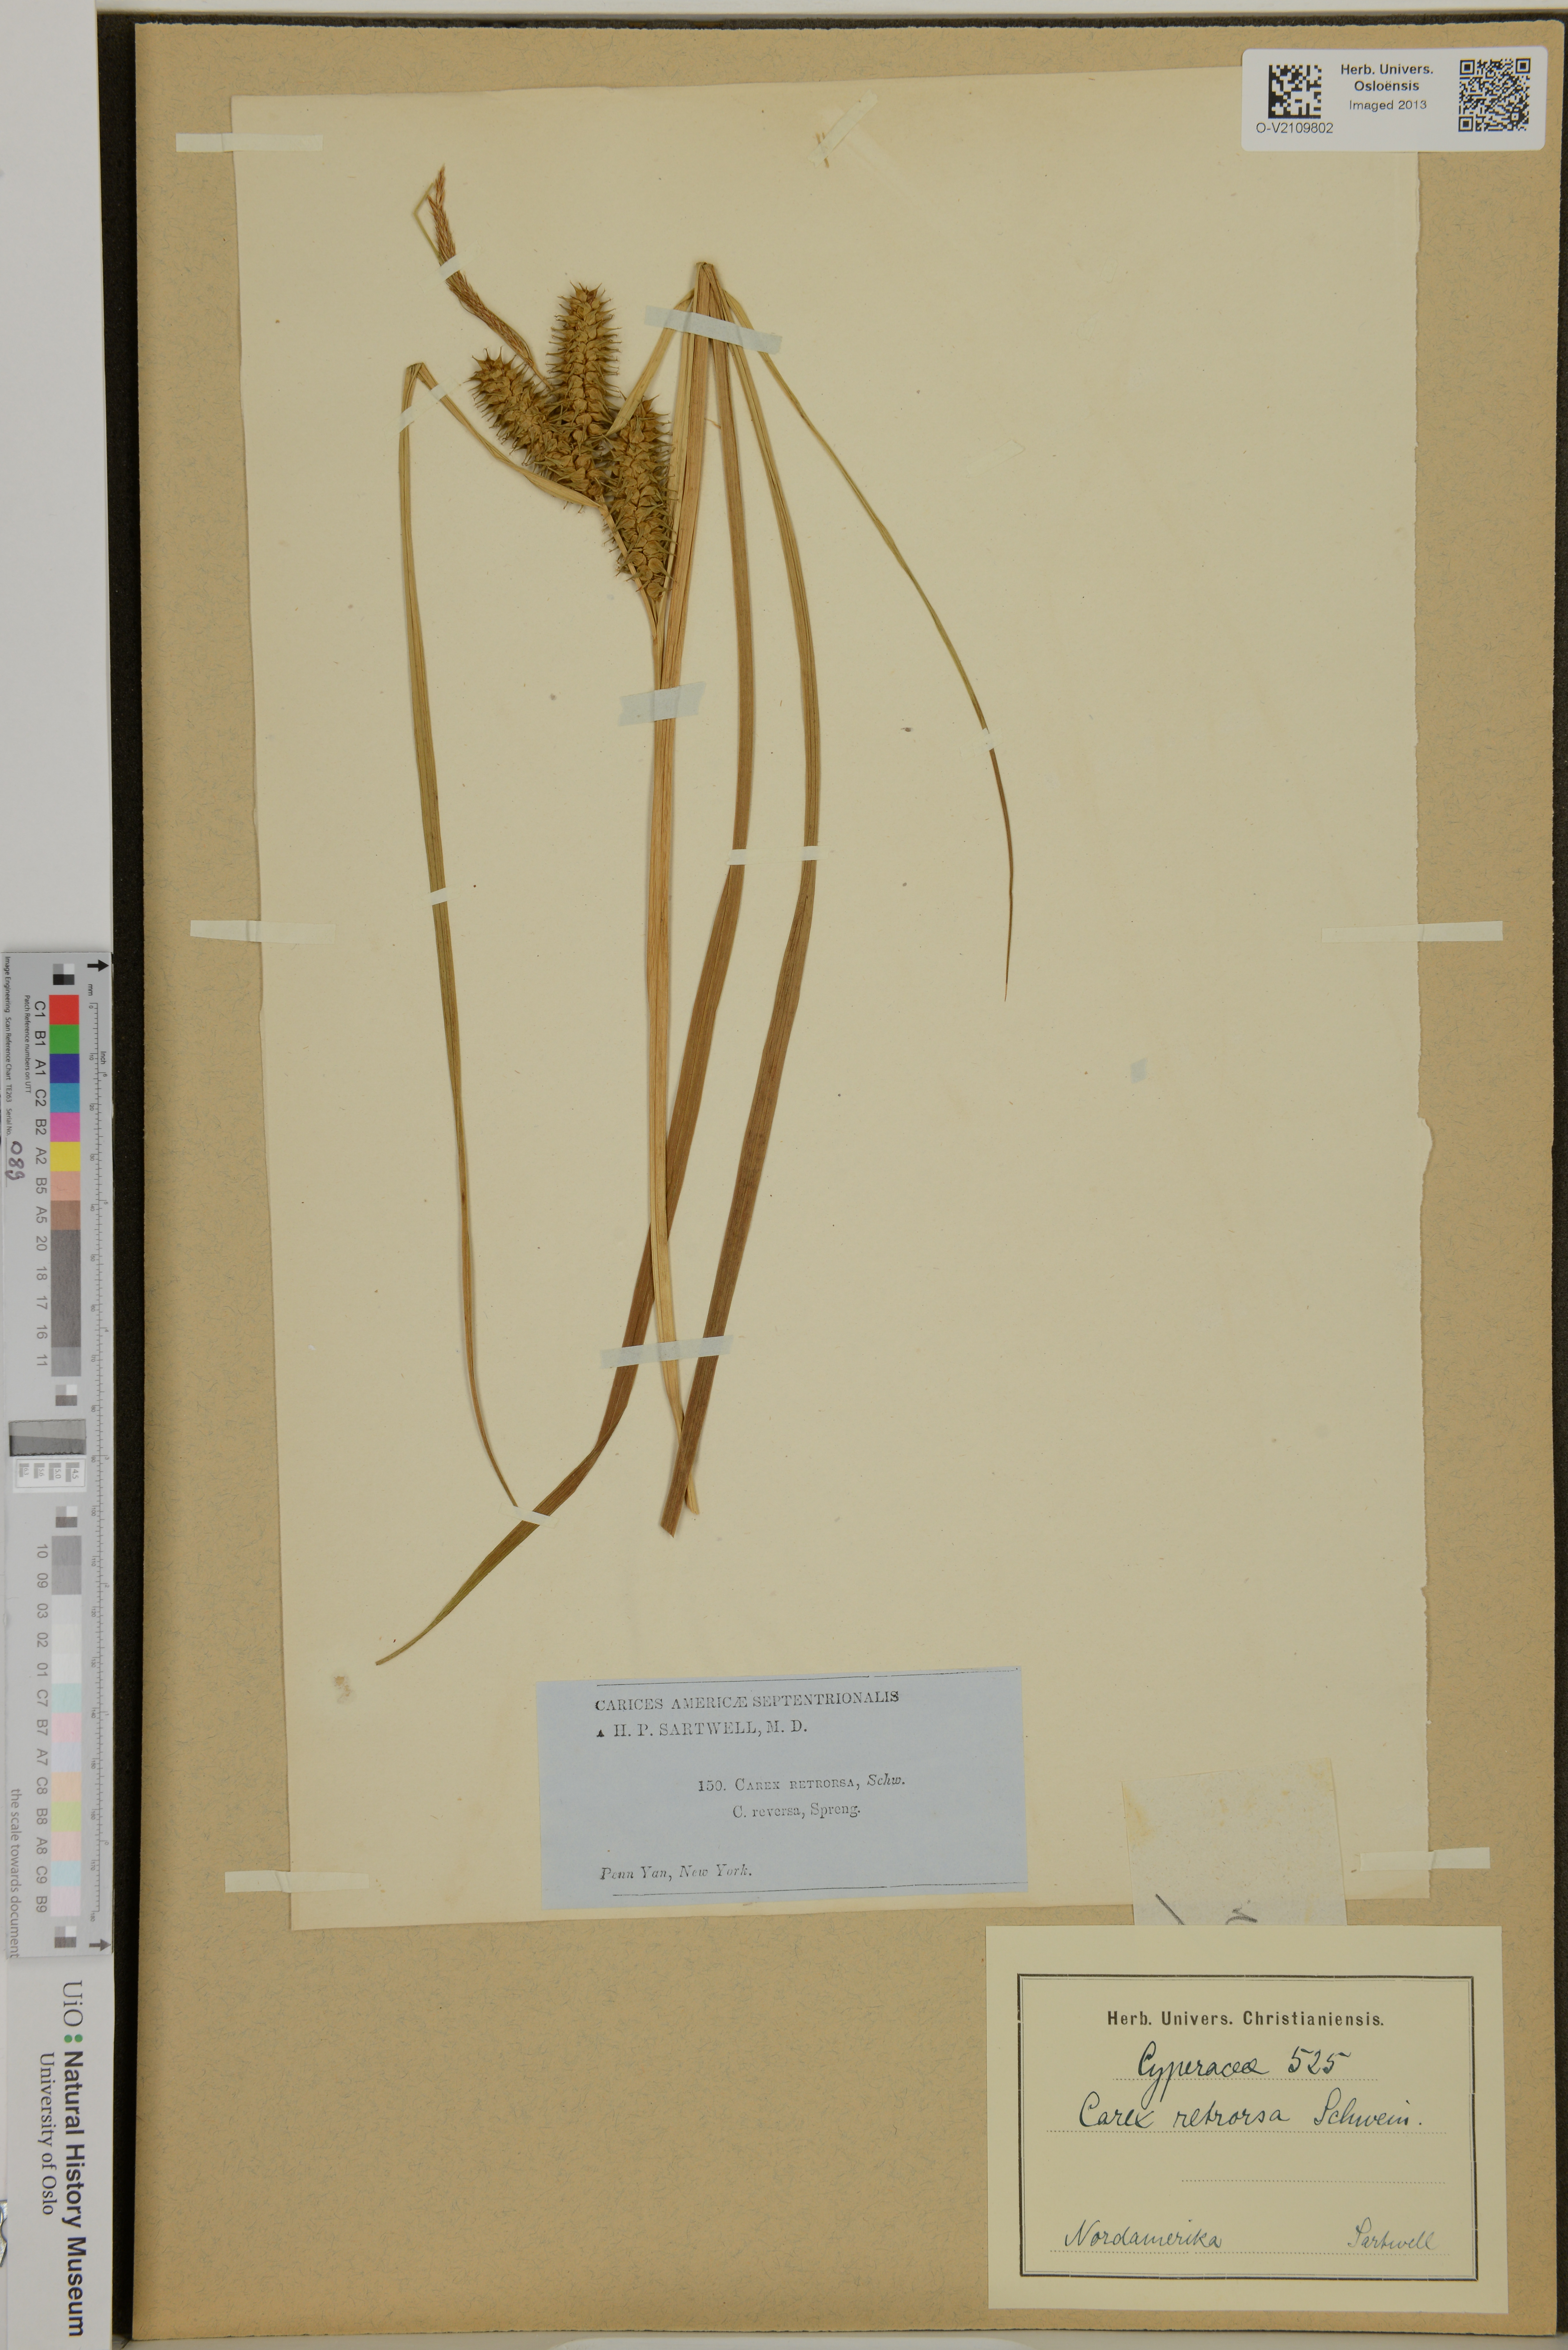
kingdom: Plantae
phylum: Tracheophyta
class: Liliopsida
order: Poales
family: Cyperaceae
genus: Carex
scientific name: Carex retrorsa
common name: Knot-sheath sedge
